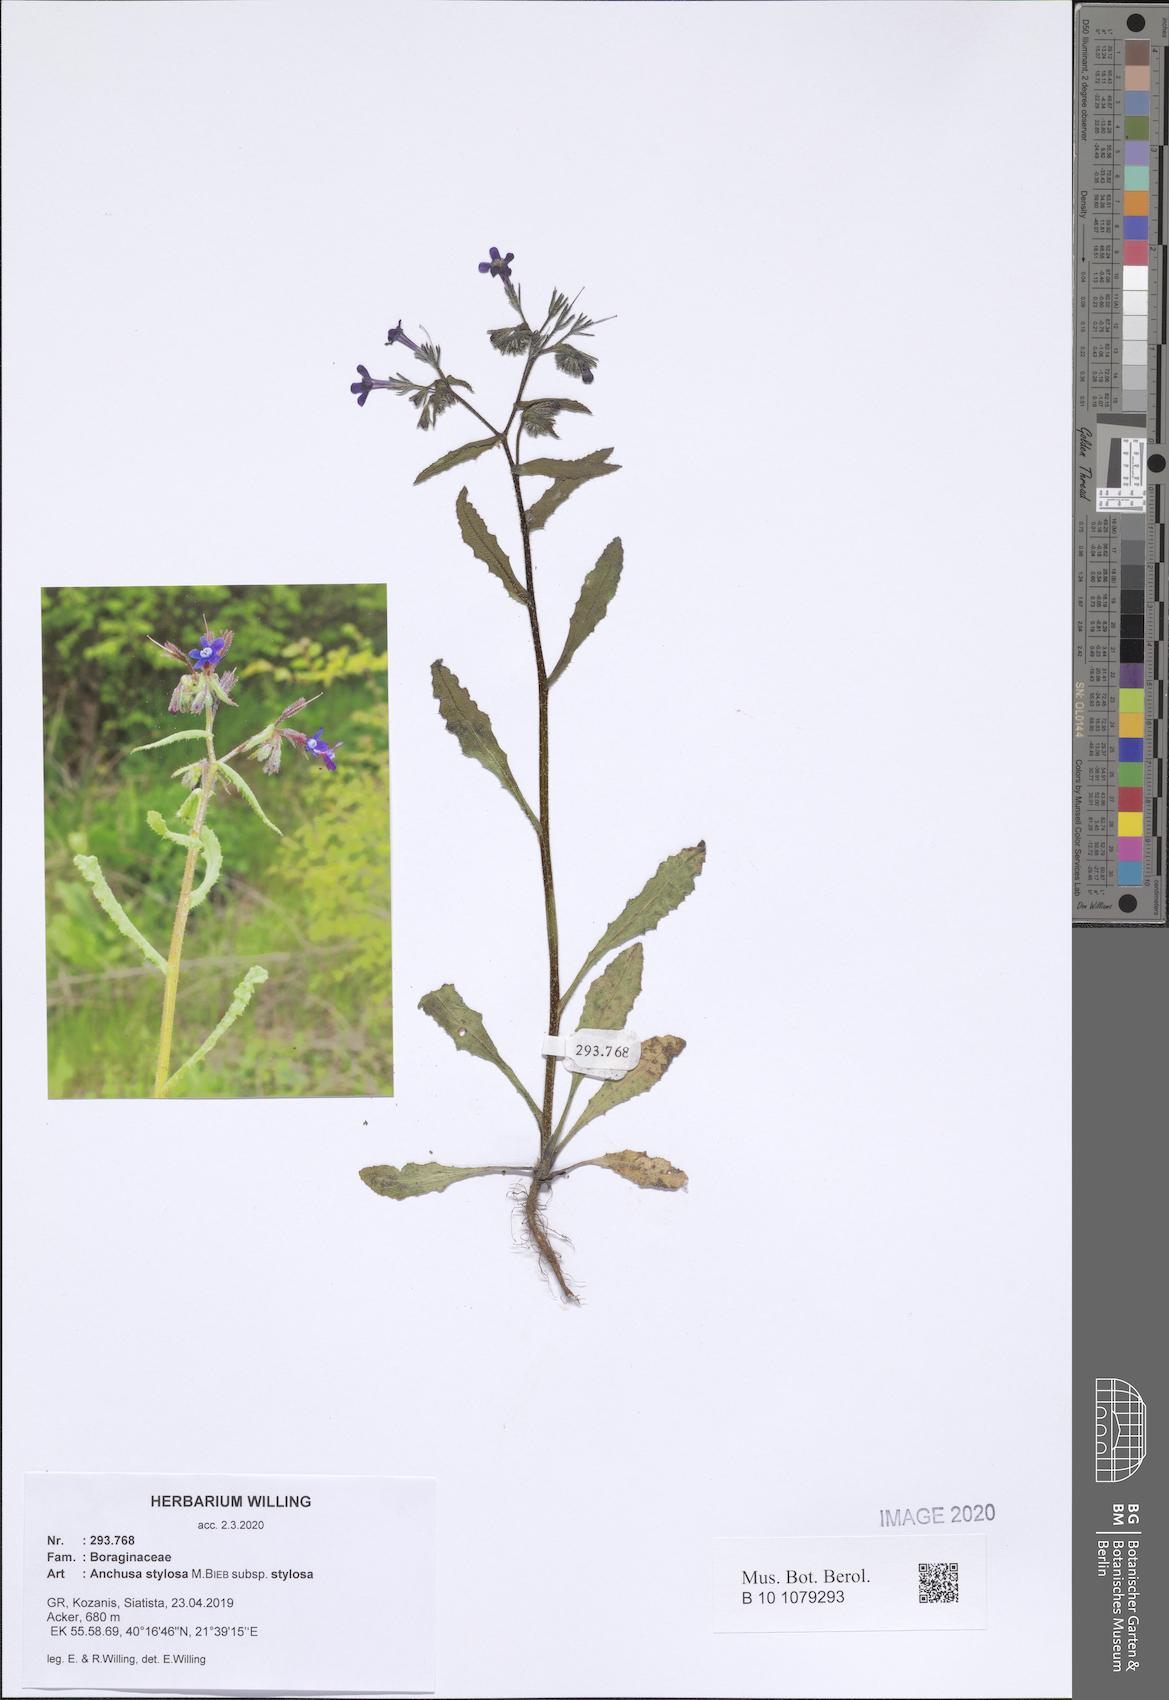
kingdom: Plantae
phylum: Tracheophyta
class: Magnoliopsida
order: Boraginales
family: Boraginaceae
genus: Anchusa
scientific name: Anchusa stylosa
